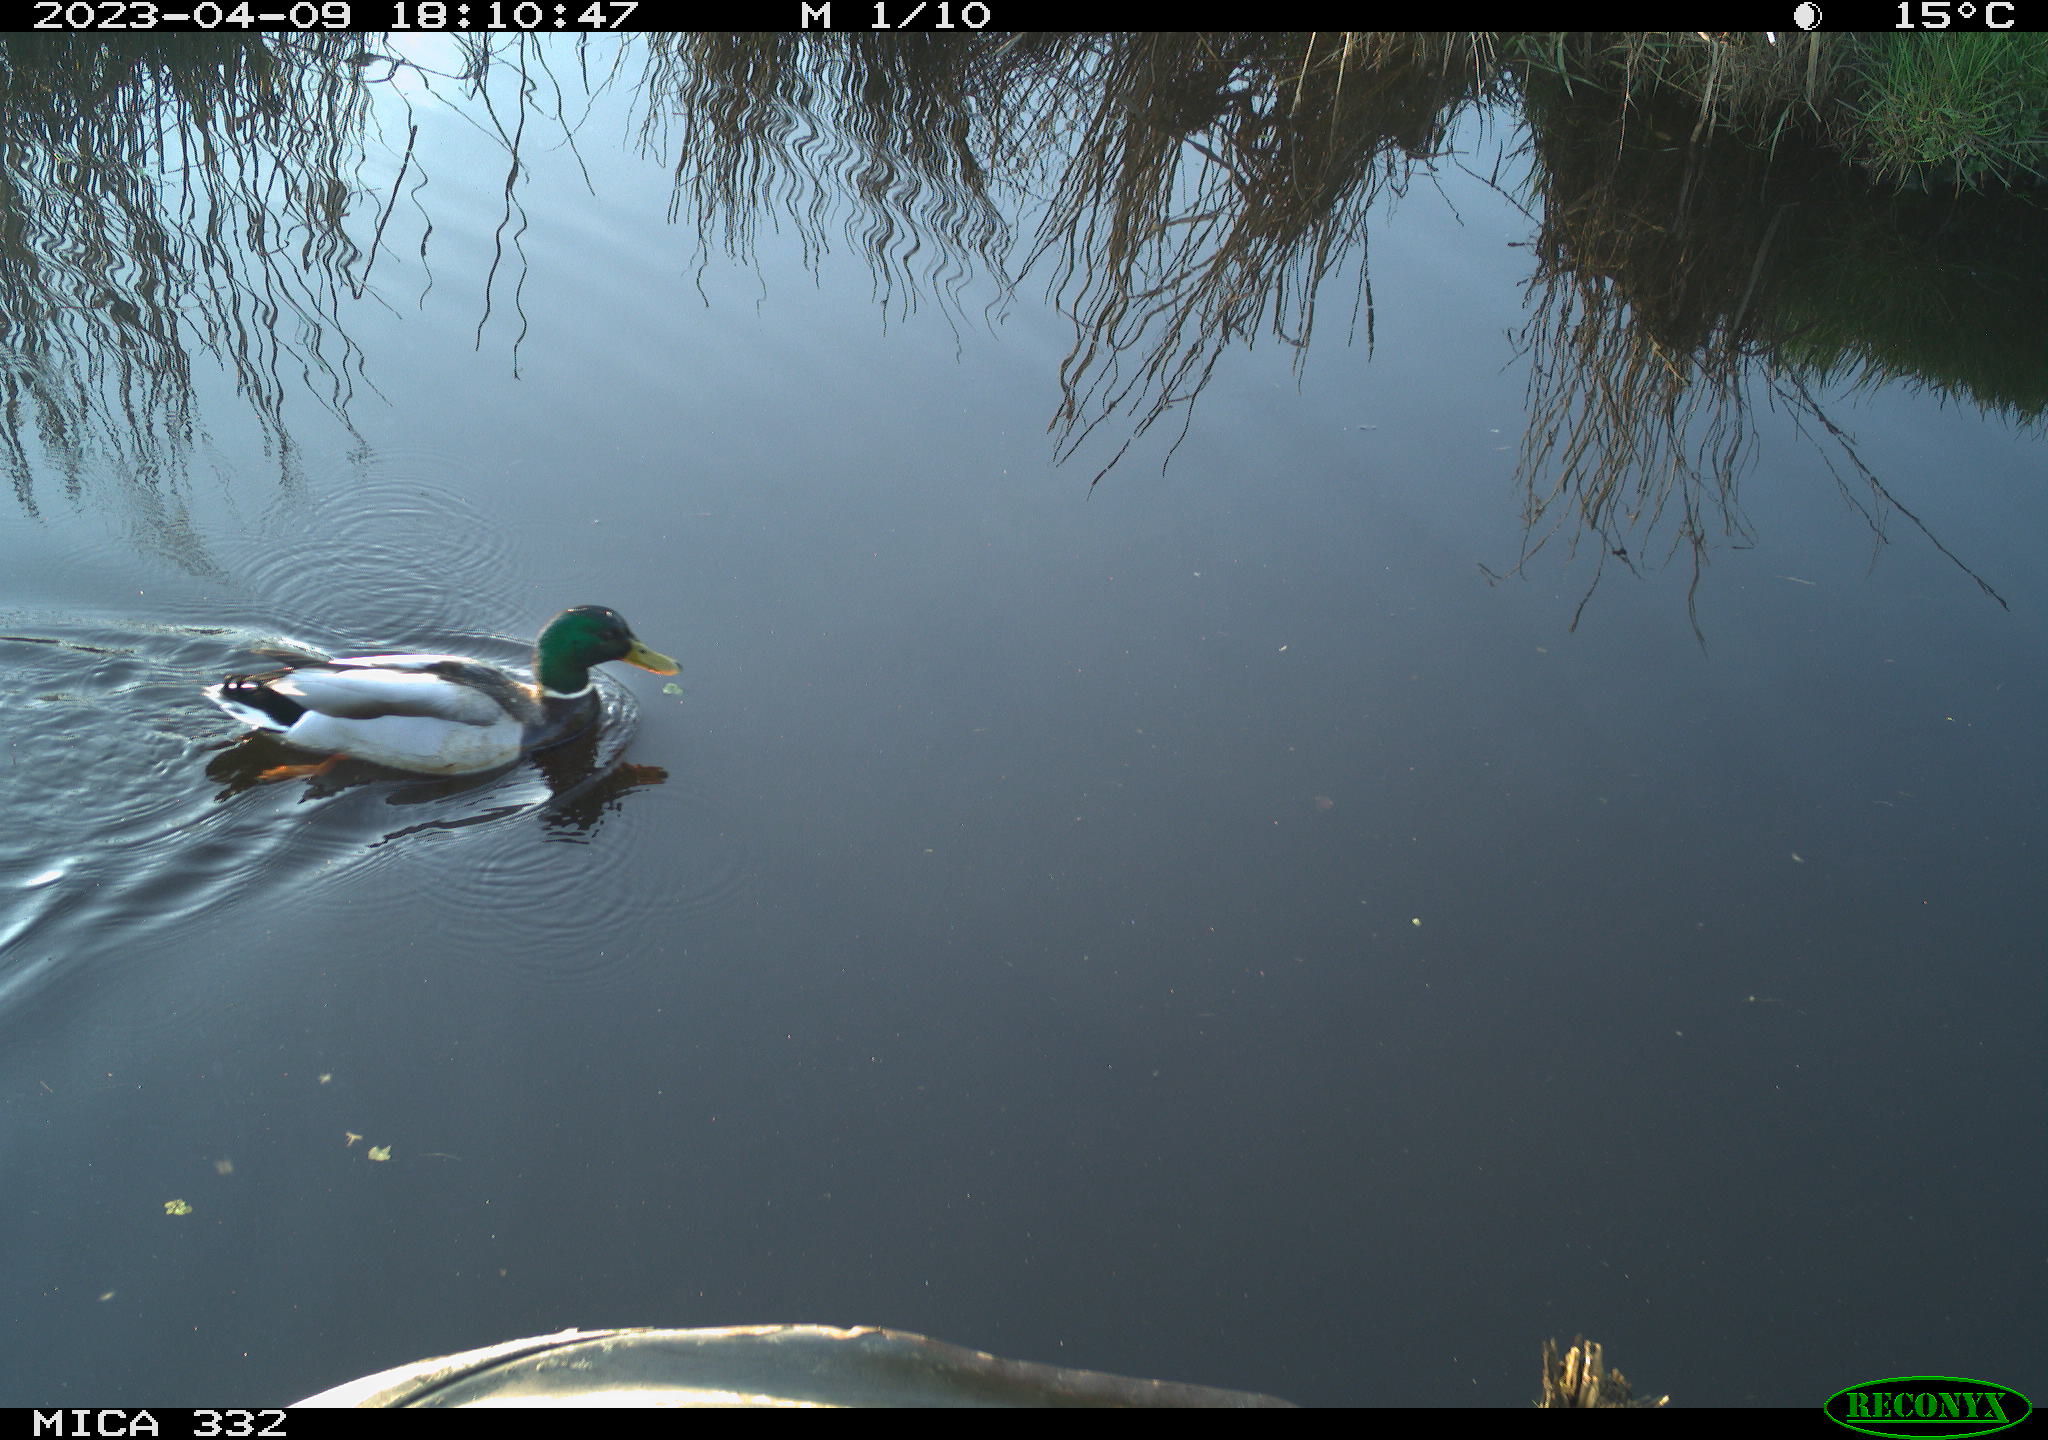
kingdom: Animalia
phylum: Chordata
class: Aves
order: Anseriformes
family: Anatidae
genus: Anas
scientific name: Anas
